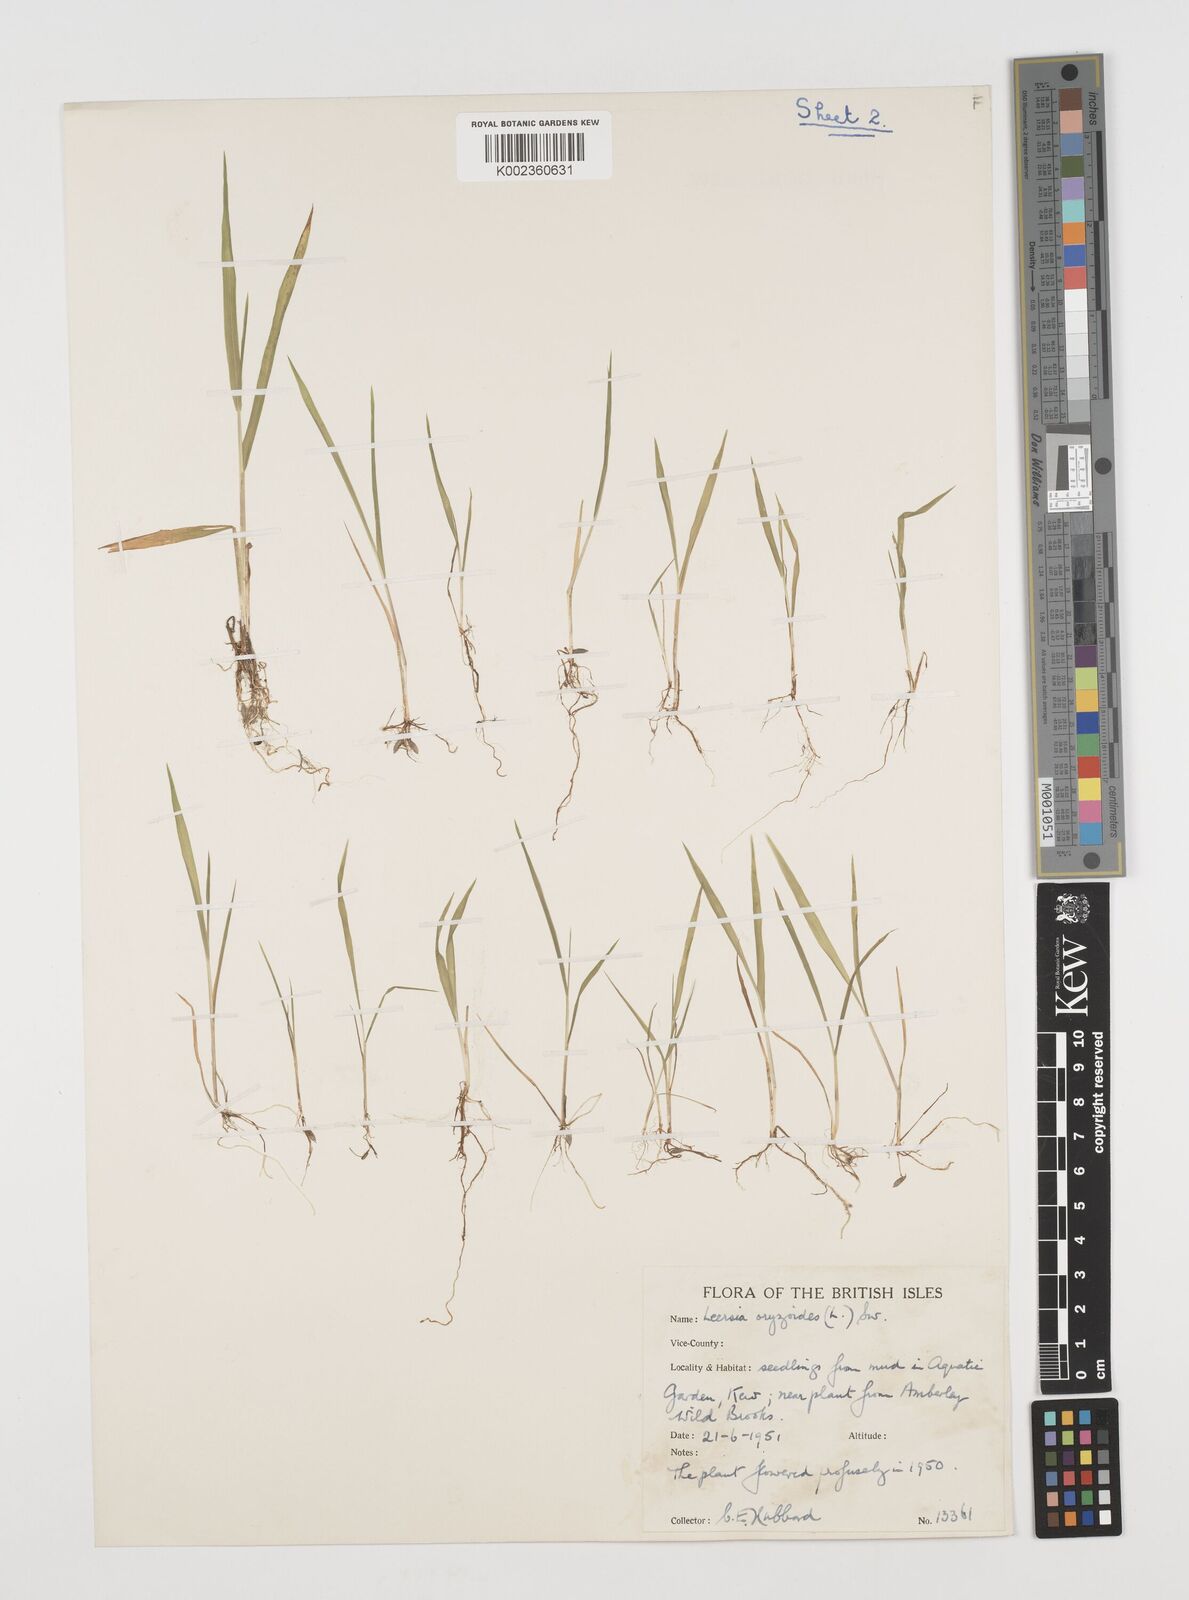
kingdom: Plantae
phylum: Tracheophyta
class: Liliopsida
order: Poales
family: Poaceae
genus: Leersia
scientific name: Leersia oryzoides
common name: Cut-grass
